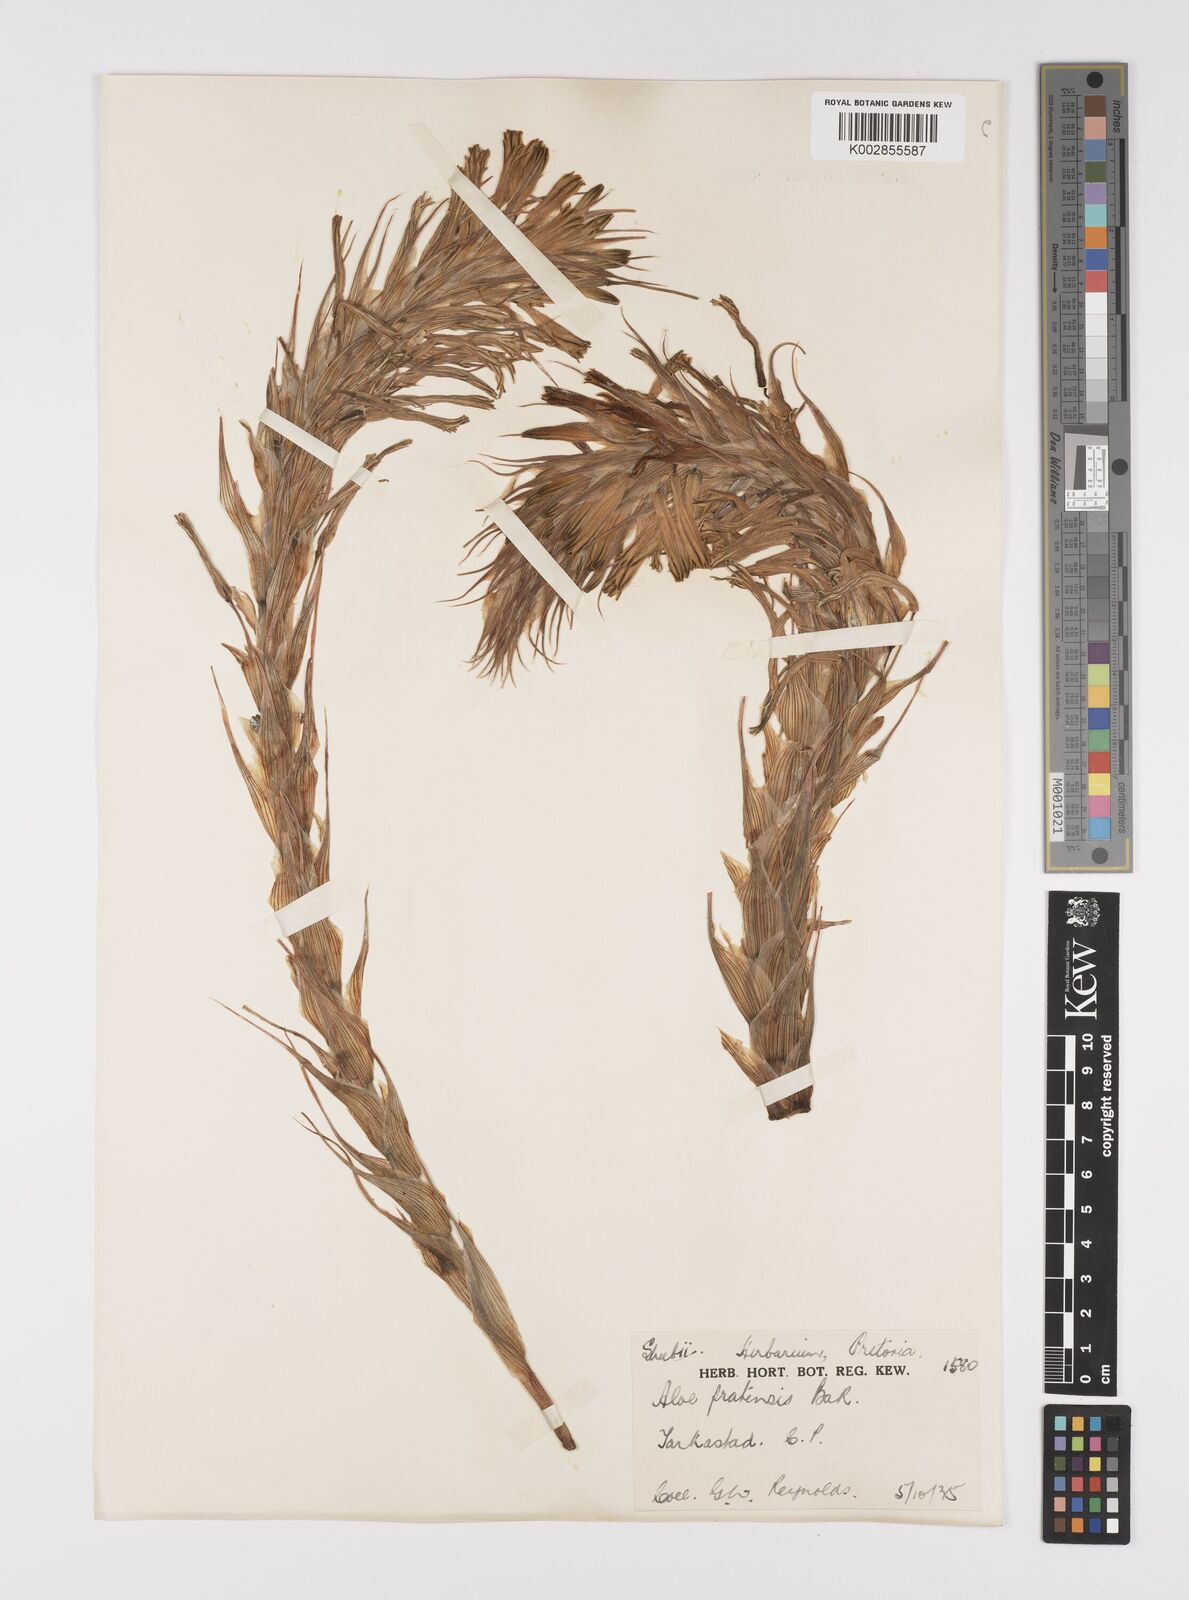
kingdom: Plantae
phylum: Tracheophyta
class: Liliopsida
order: Asparagales
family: Asphodelaceae
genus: Aloe
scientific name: Aloe pratensis
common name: Meadow aloe
